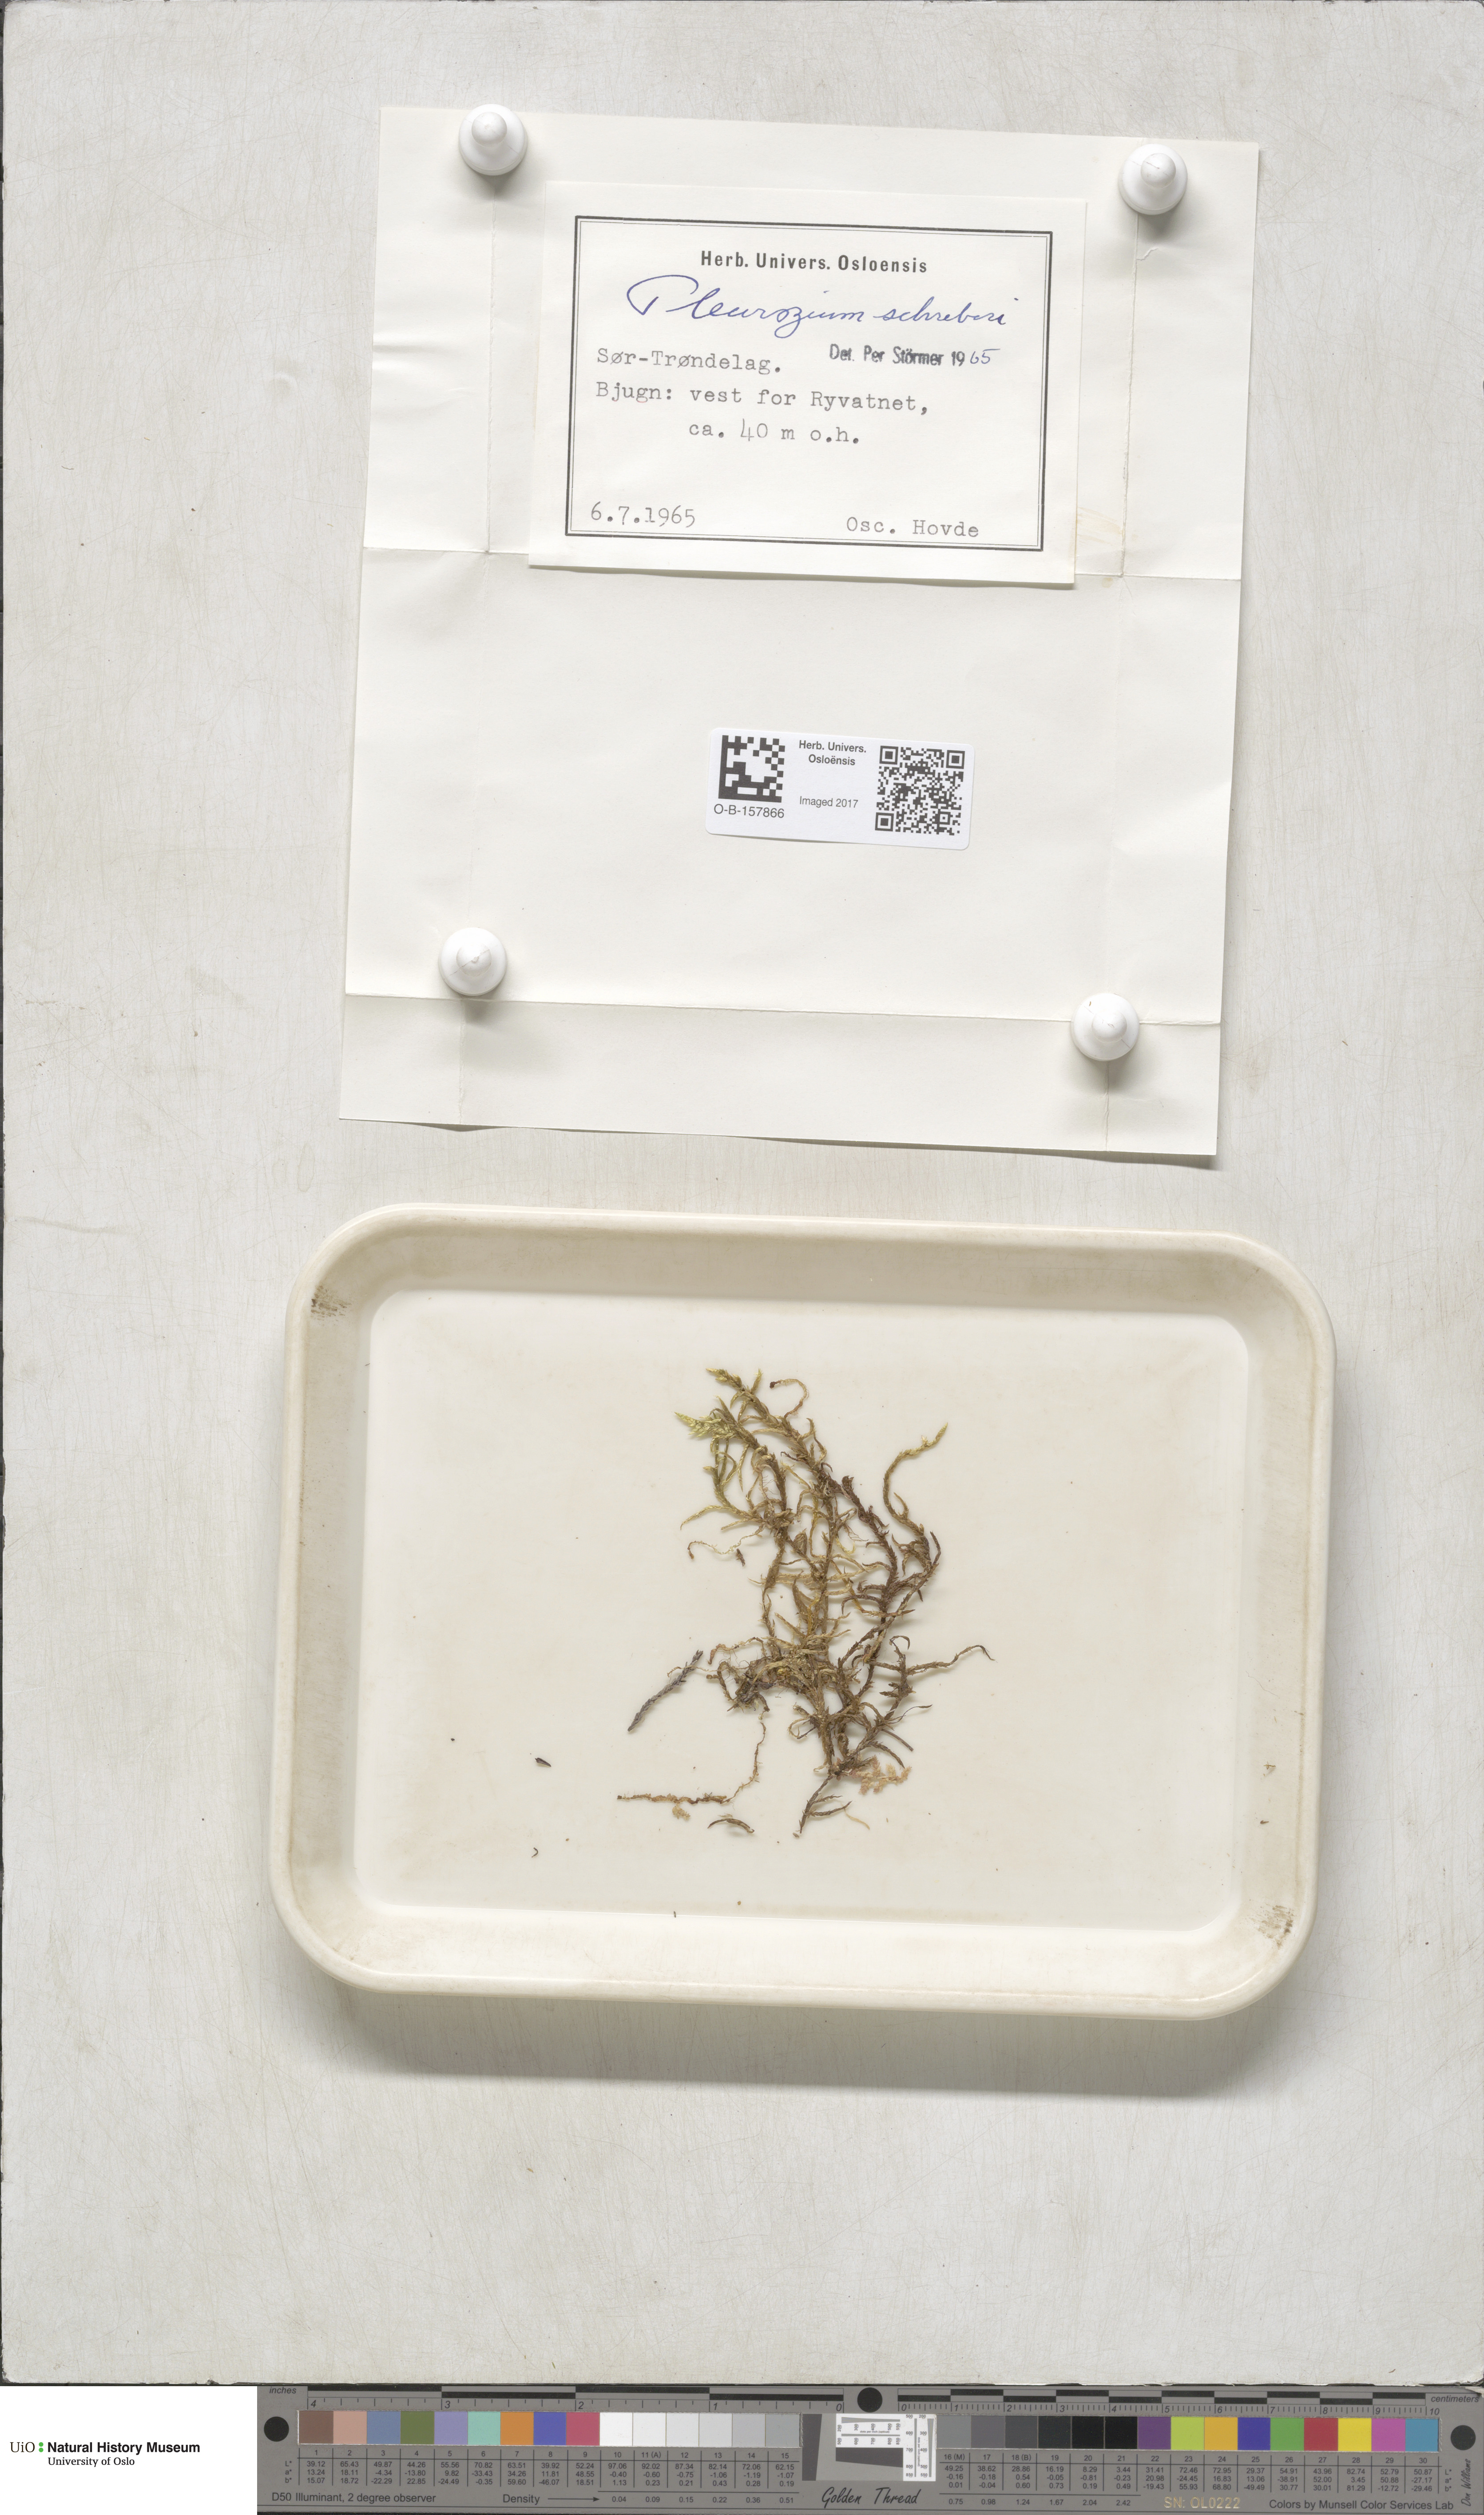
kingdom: Plantae
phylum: Bryophyta
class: Bryopsida
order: Hypnales
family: Hylocomiaceae
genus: Pleurozium
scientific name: Pleurozium schreberi
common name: Red-stemmed feather moss
